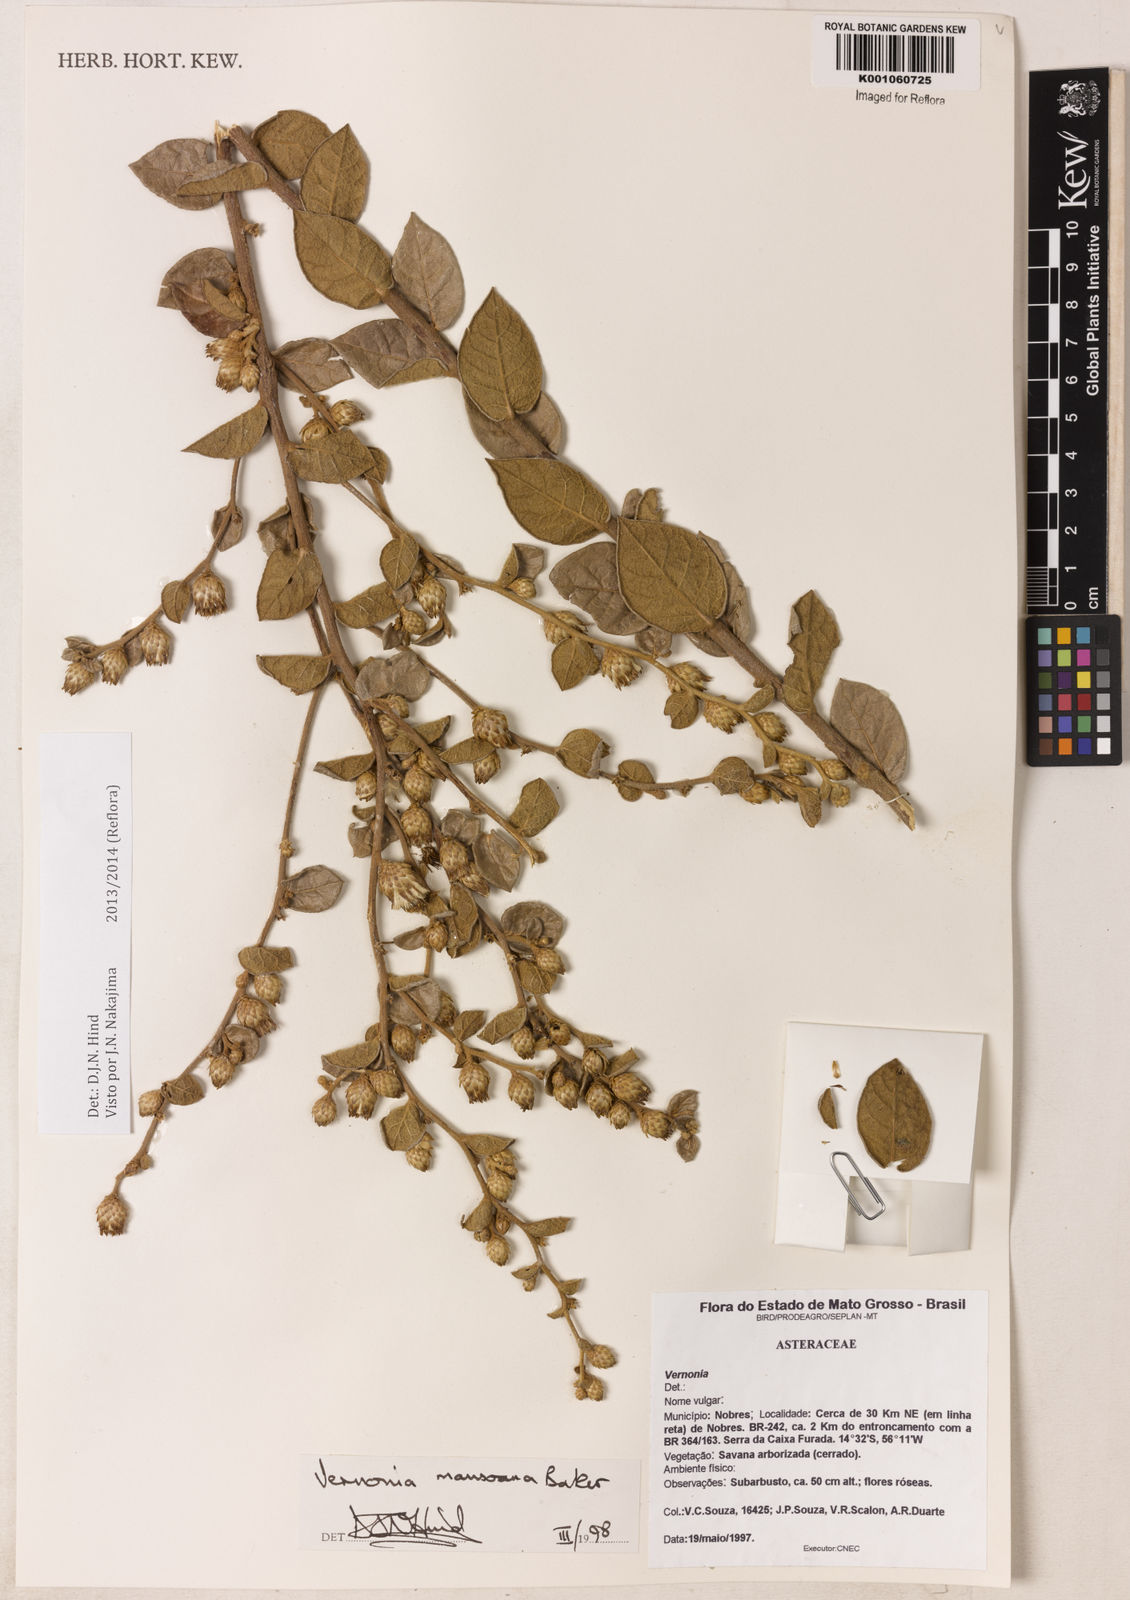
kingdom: Plantae
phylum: Tracheophyta
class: Magnoliopsida
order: Asterales
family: Asteraceae
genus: Lessingianthus
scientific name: Lessingianthus mansoanus
